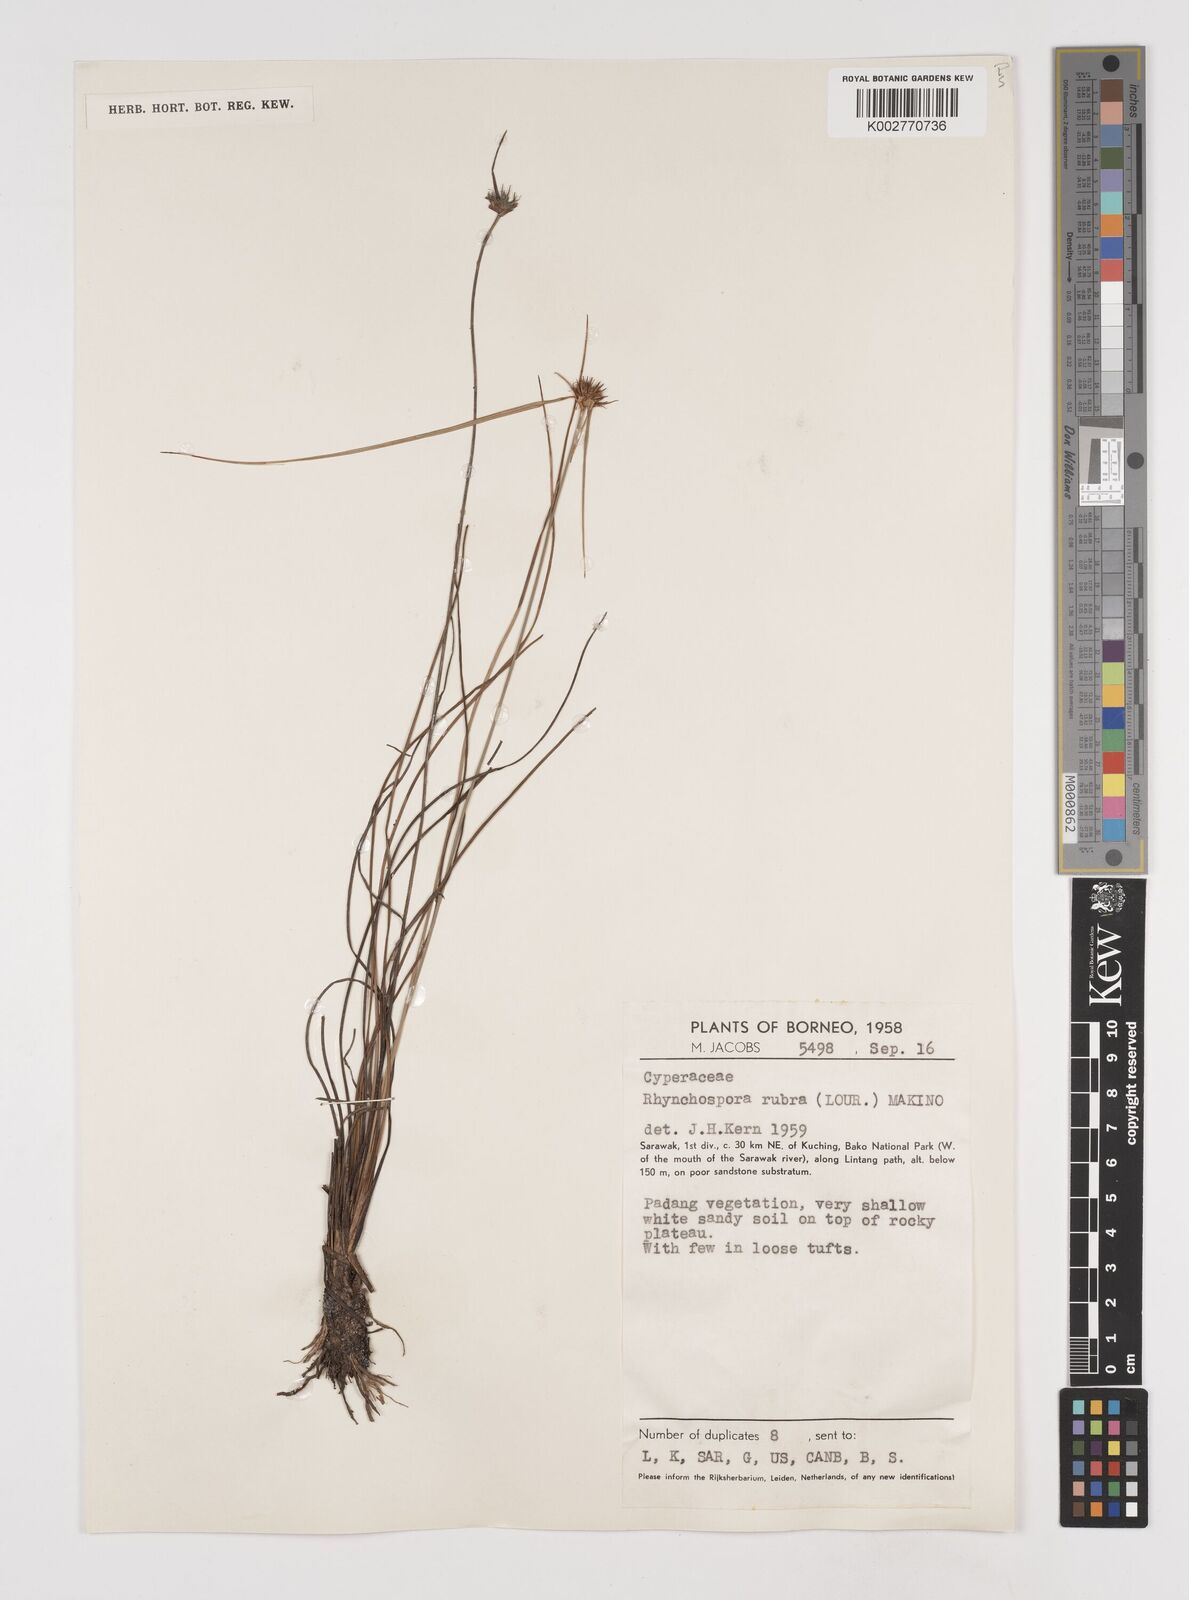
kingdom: Plantae
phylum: Tracheophyta
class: Liliopsida
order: Poales
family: Cyperaceae
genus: Rhynchospora
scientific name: Rhynchospora rubra
